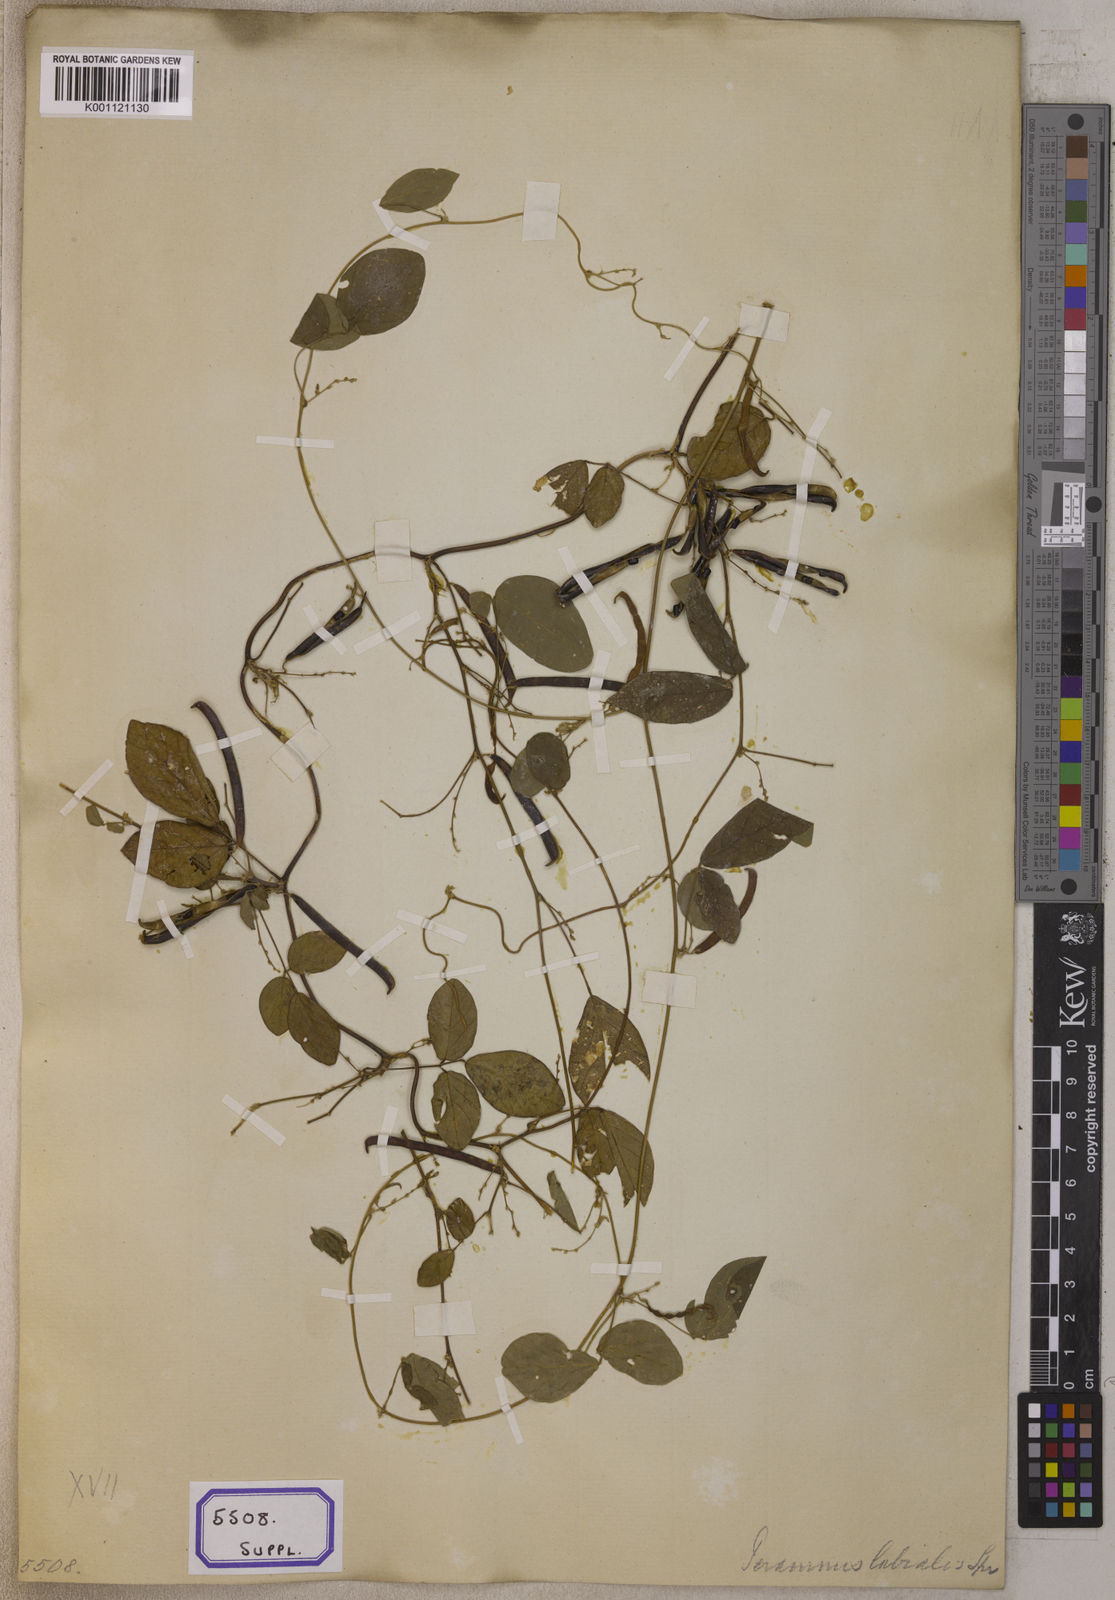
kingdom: Plantae
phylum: Tracheophyta
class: Magnoliopsida
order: Fabales
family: Fabaceae
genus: Teramnus
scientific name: Teramnus labialis
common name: Blue wiss
